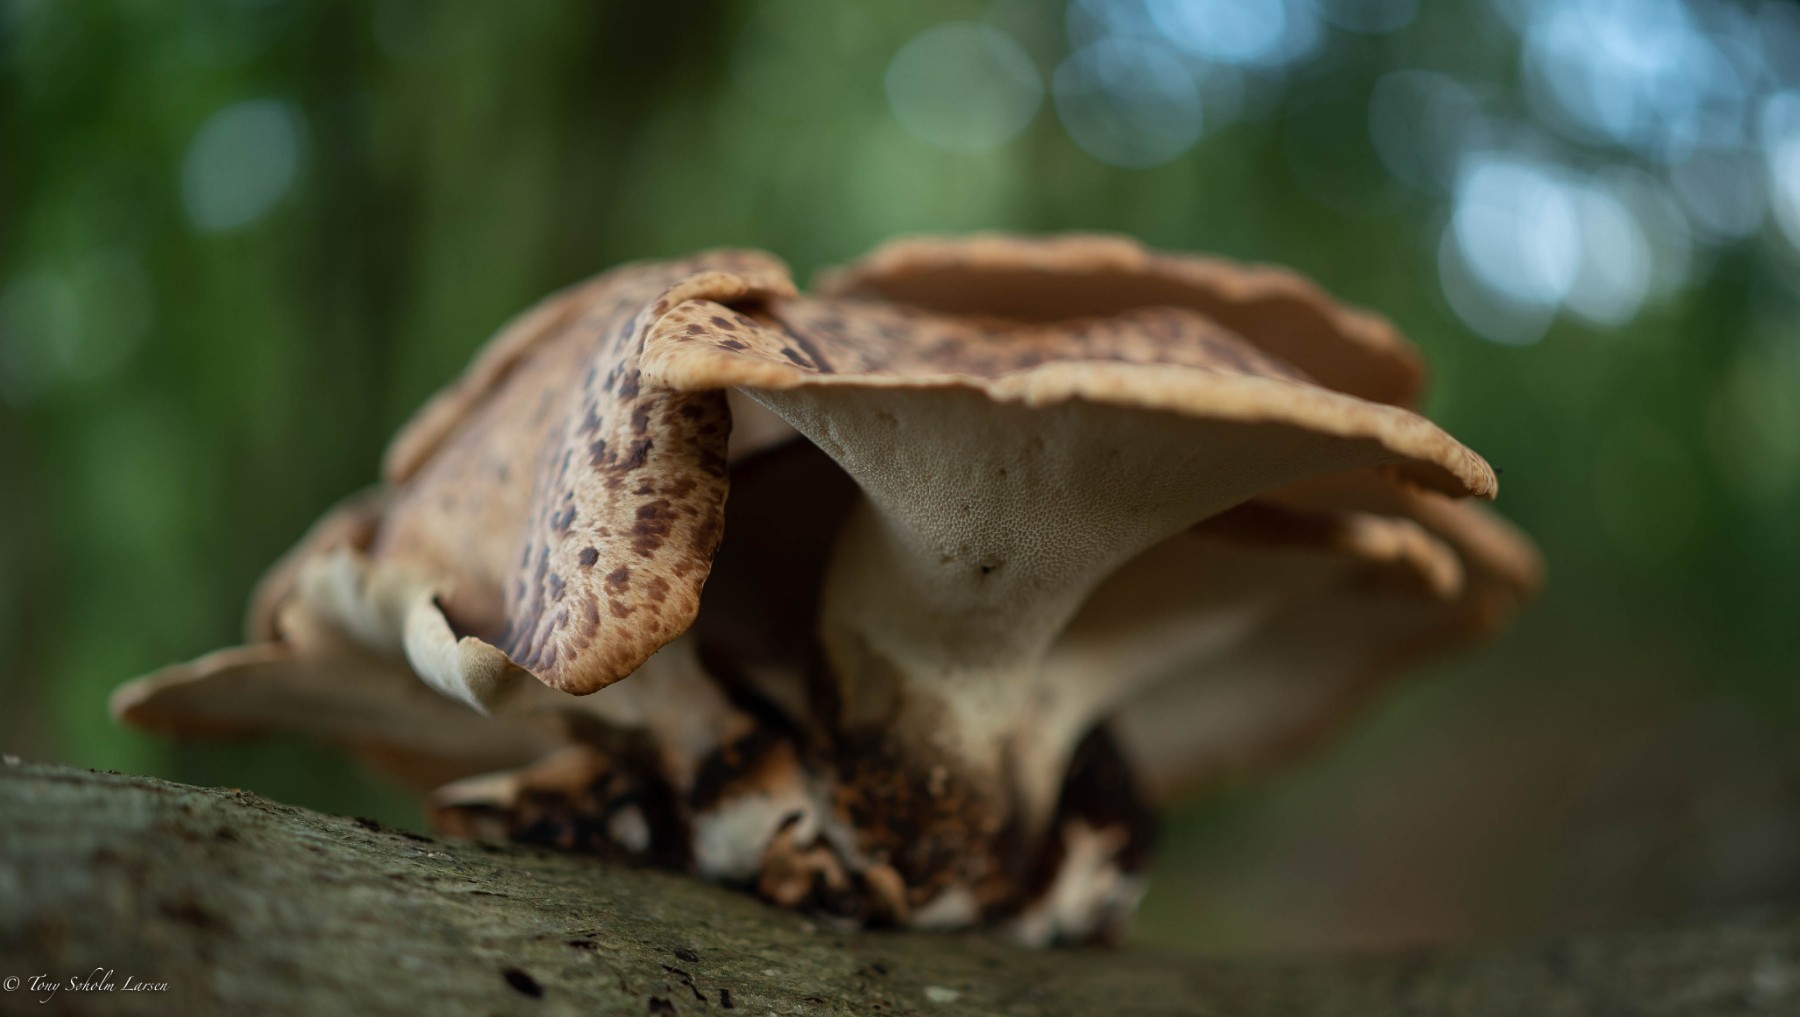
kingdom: Fungi
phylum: Basidiomycota
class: Agaricomycetes
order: Polyporales
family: Polyporaceae
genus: Polyporus
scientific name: Polyporus tuberaster
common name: knoldet stilkporesvamp
